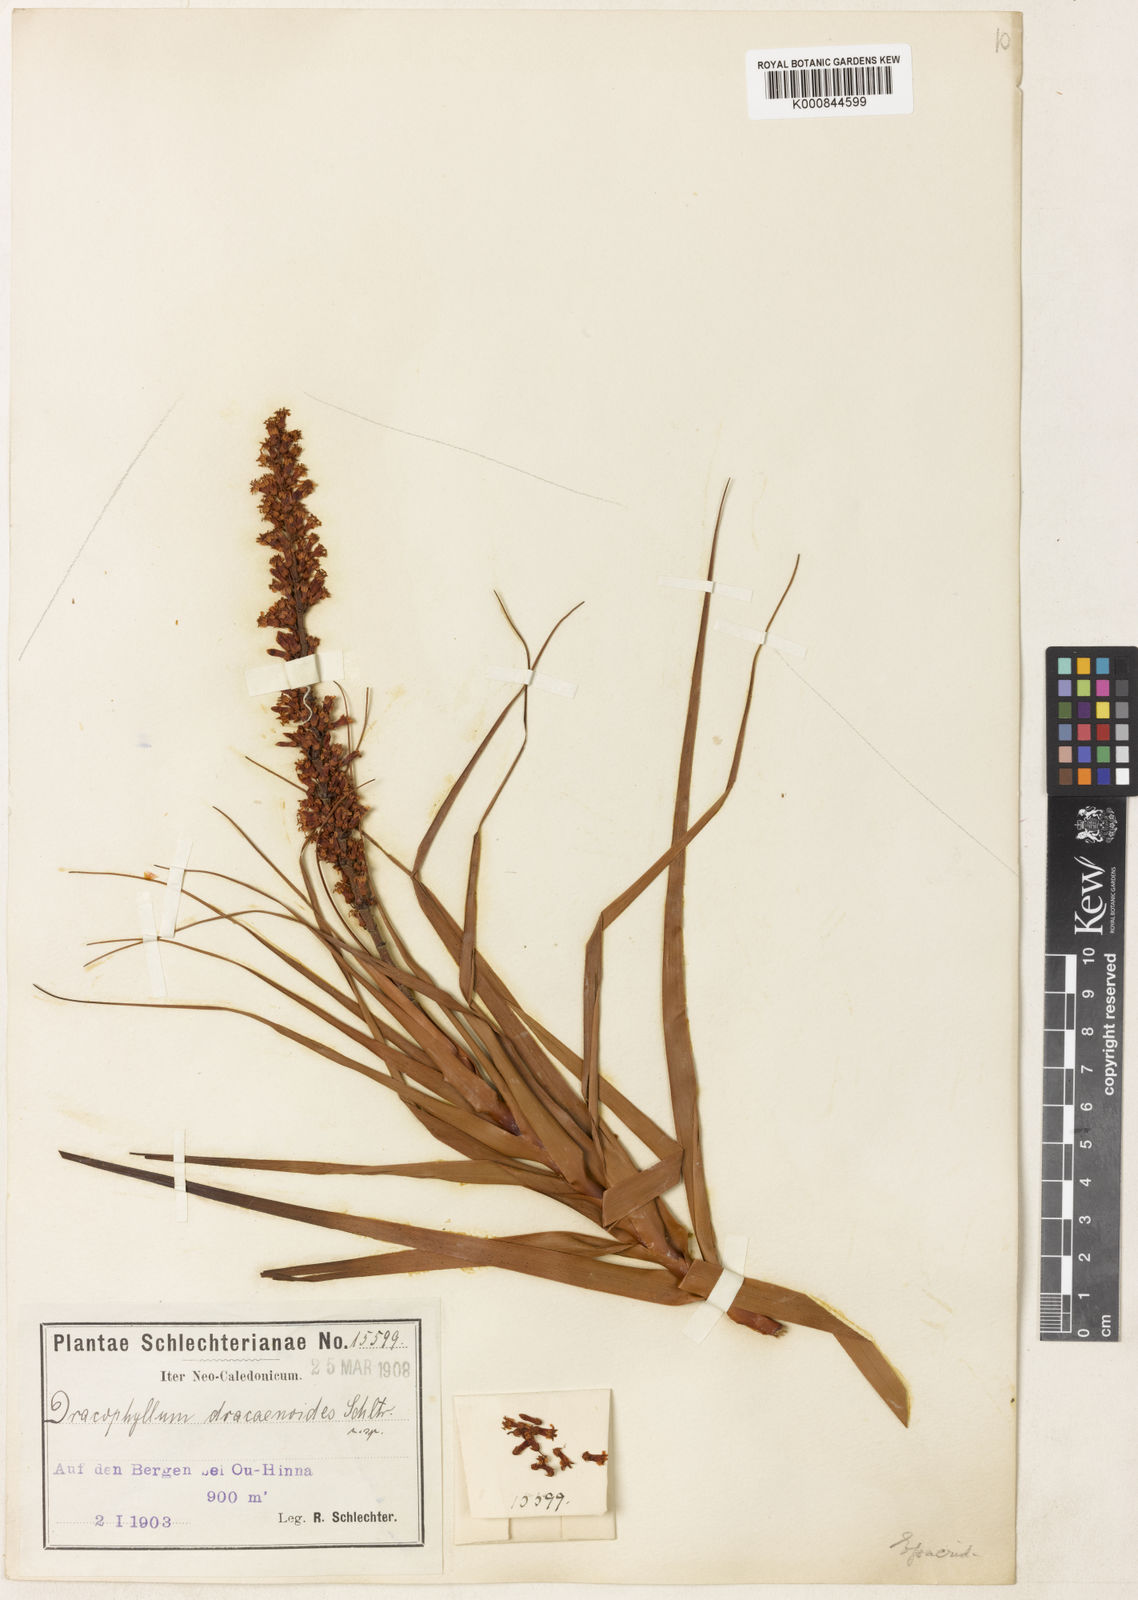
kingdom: Plantae
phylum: Tracheophyta
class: Magnoliopsida
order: Ericales
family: Ericaceae
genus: Dracophyllum
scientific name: Dracophyllum verticillatum
